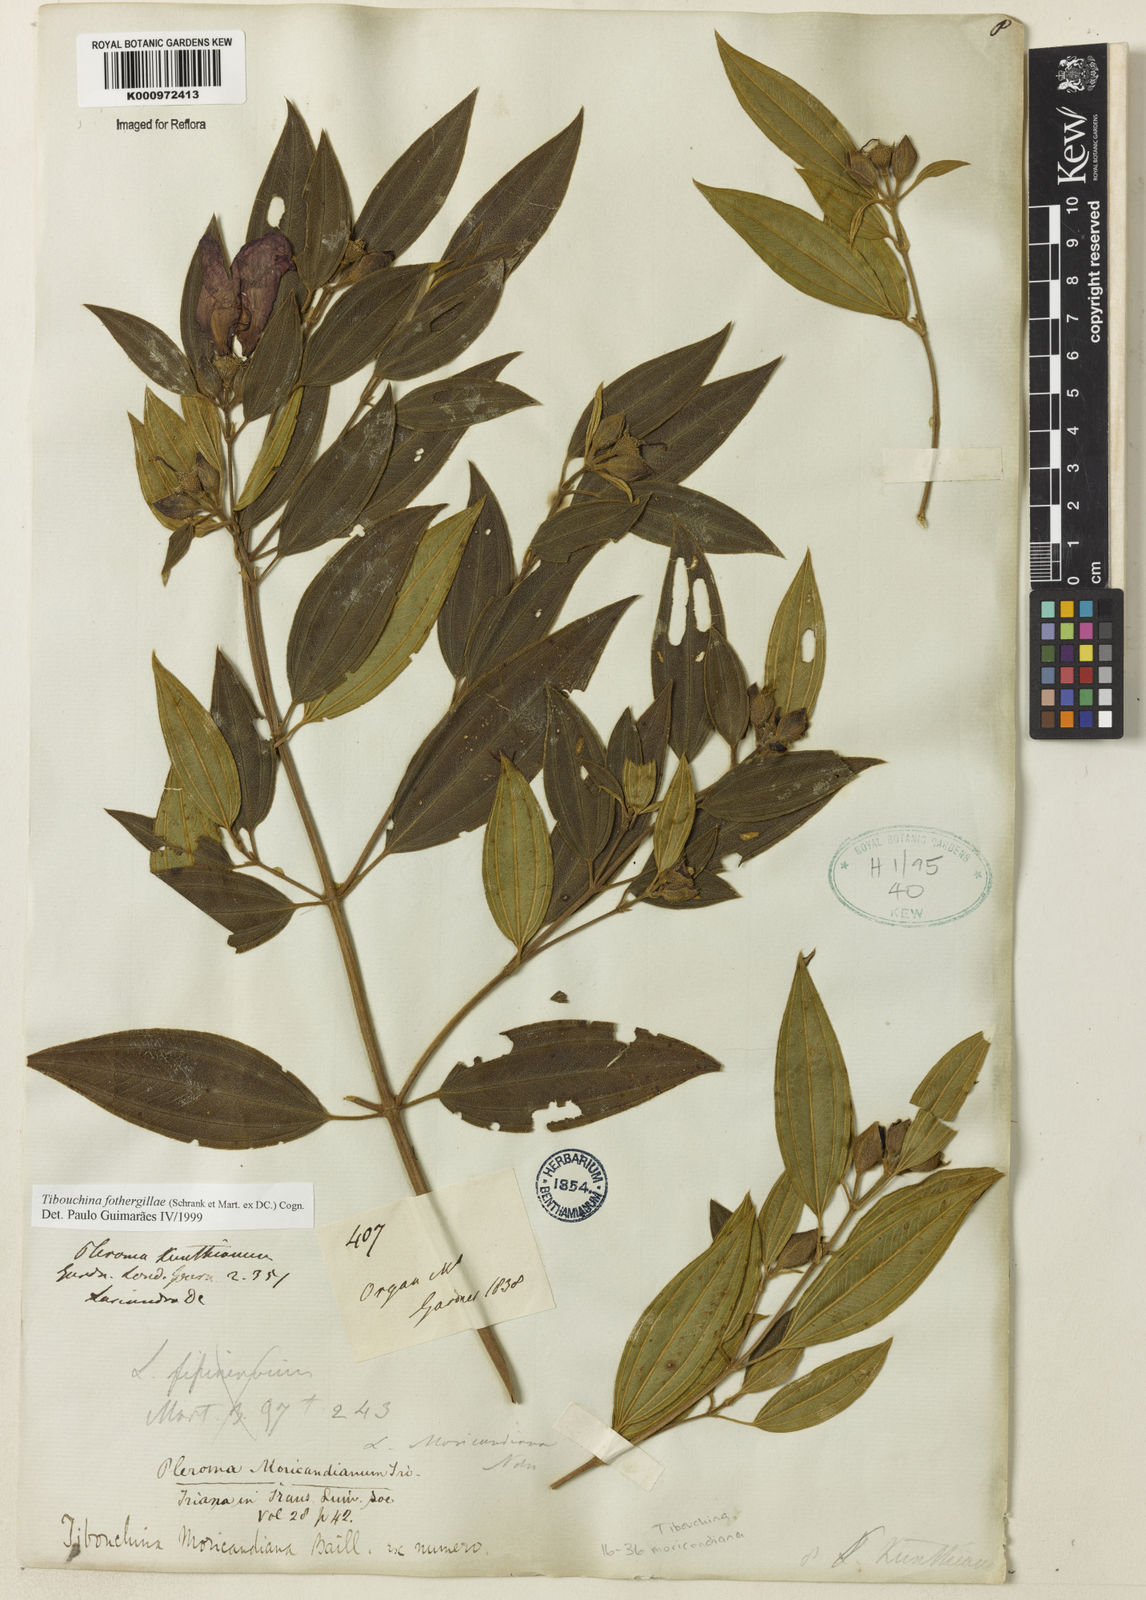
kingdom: Plantae
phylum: Tracheophyta
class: Magnoliopsida
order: Myrtales
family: Melastomataceae
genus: Pleroma
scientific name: Pleroma fothergillae
